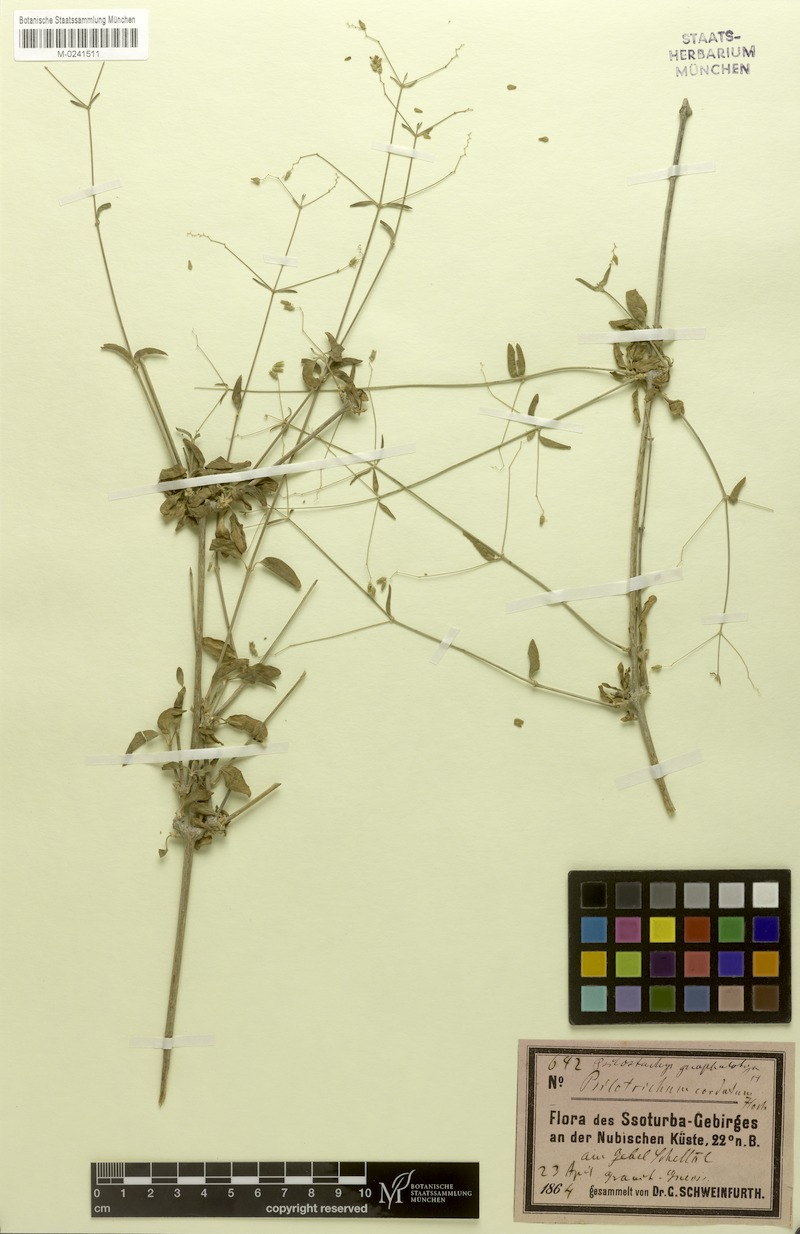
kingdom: Plantae
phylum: Tracheophyta
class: Magnoliopsida
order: Caryophyllales
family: Amaranthaceae
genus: Psilotrichum
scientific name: Psilotrichum gnaphalobryum
